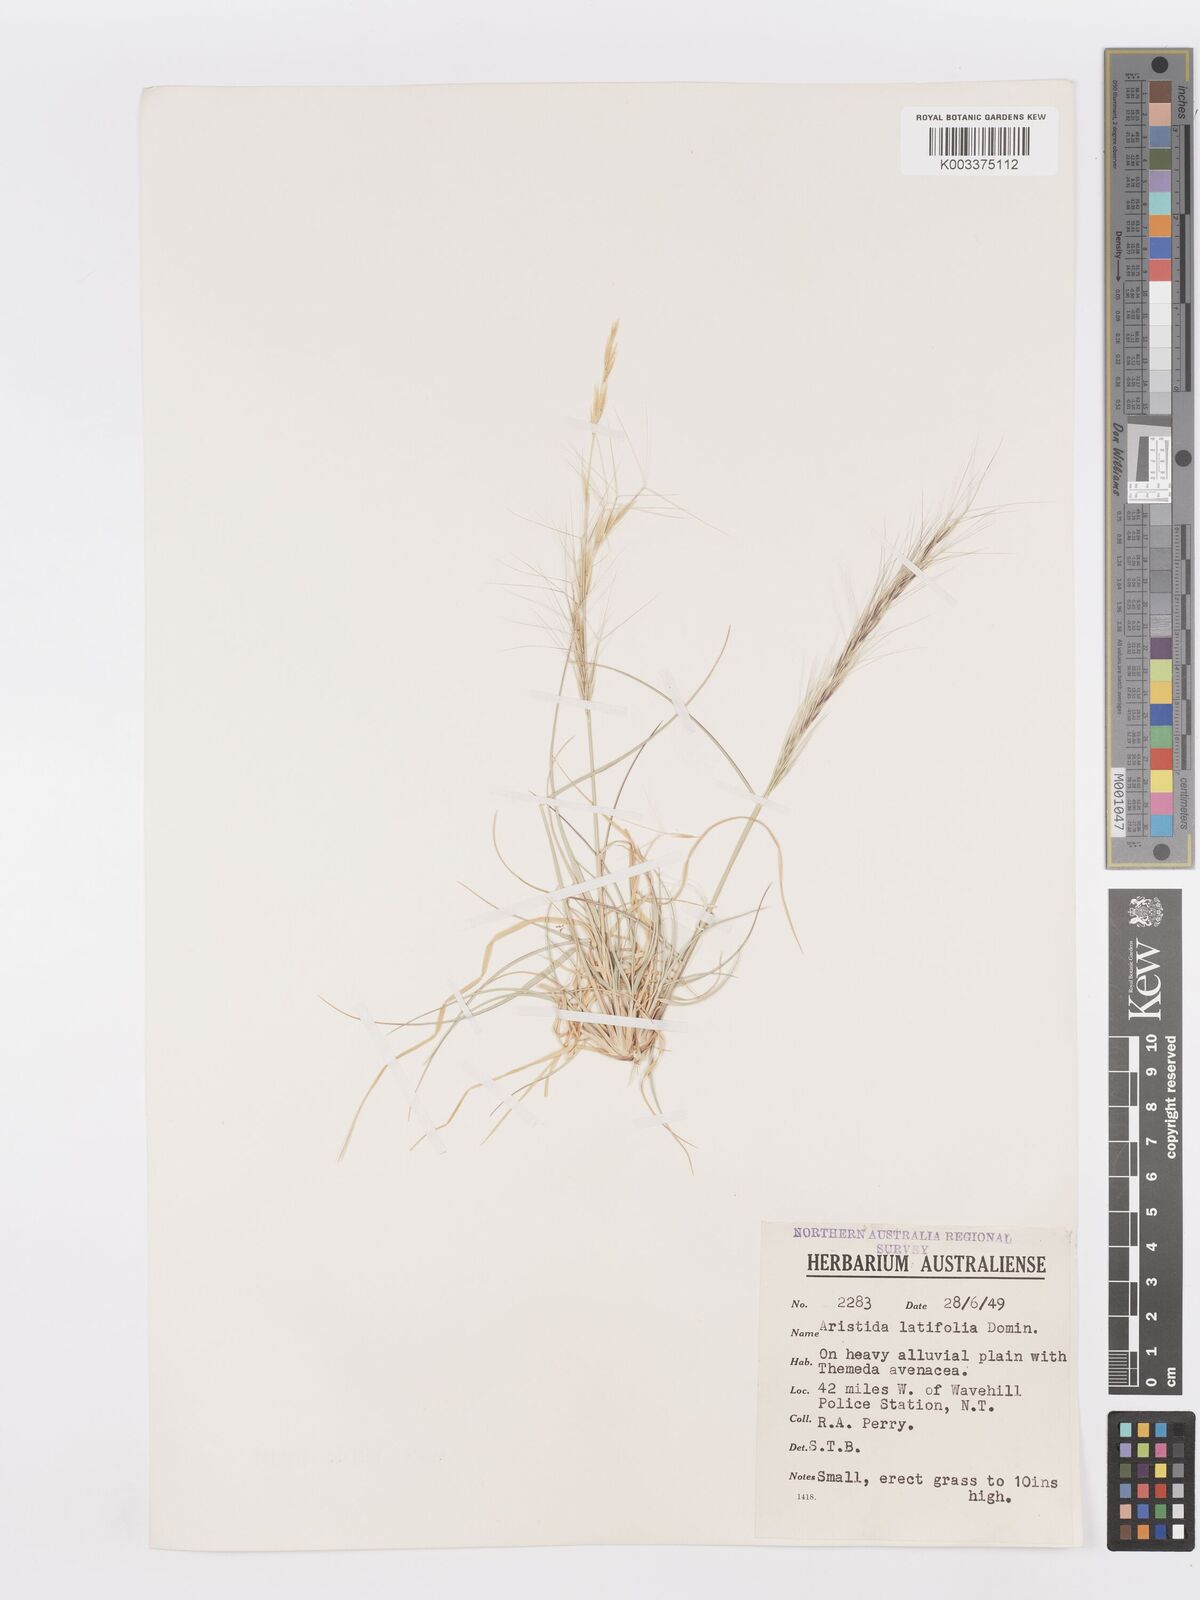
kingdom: Plantae
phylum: Tracheophyta
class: Liliopsida
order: Poales
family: Poaceae
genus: Aristida
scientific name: Aristida latifolia
